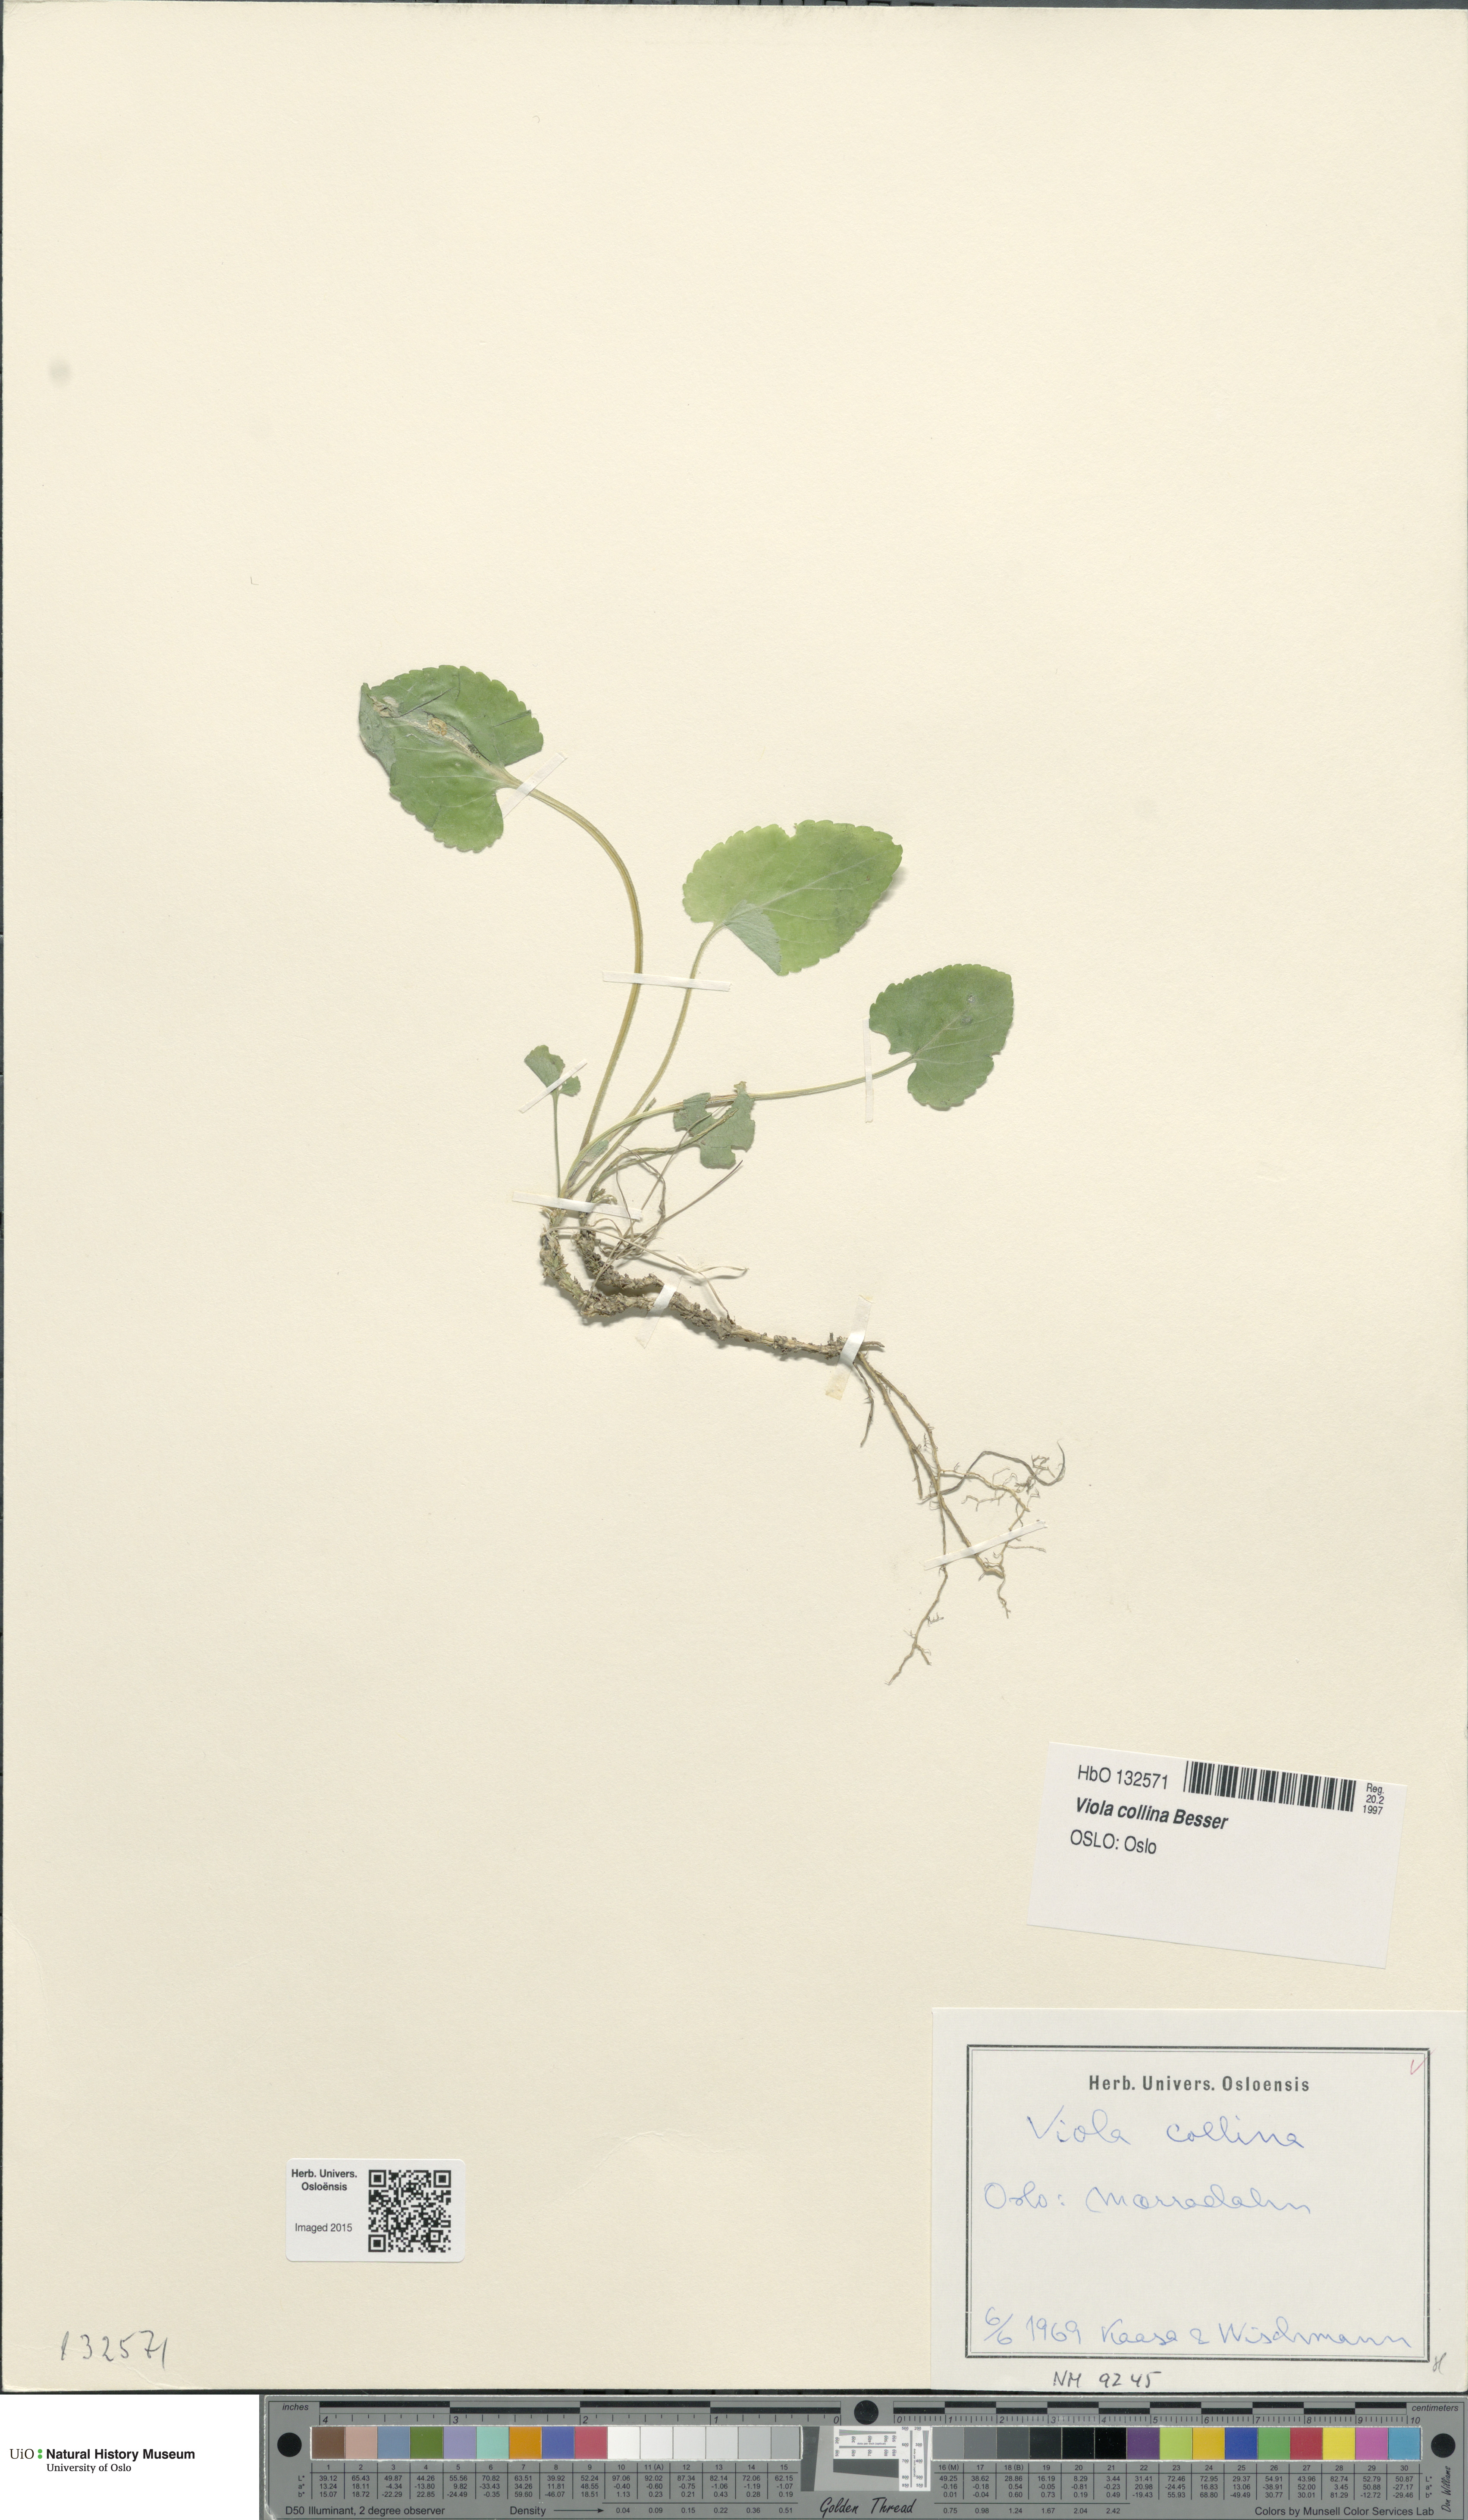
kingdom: Plantae
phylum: Tracheophyta
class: Magnoliopsida
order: Malpighiales
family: Violaceae
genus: Viola
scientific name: Viola collina
